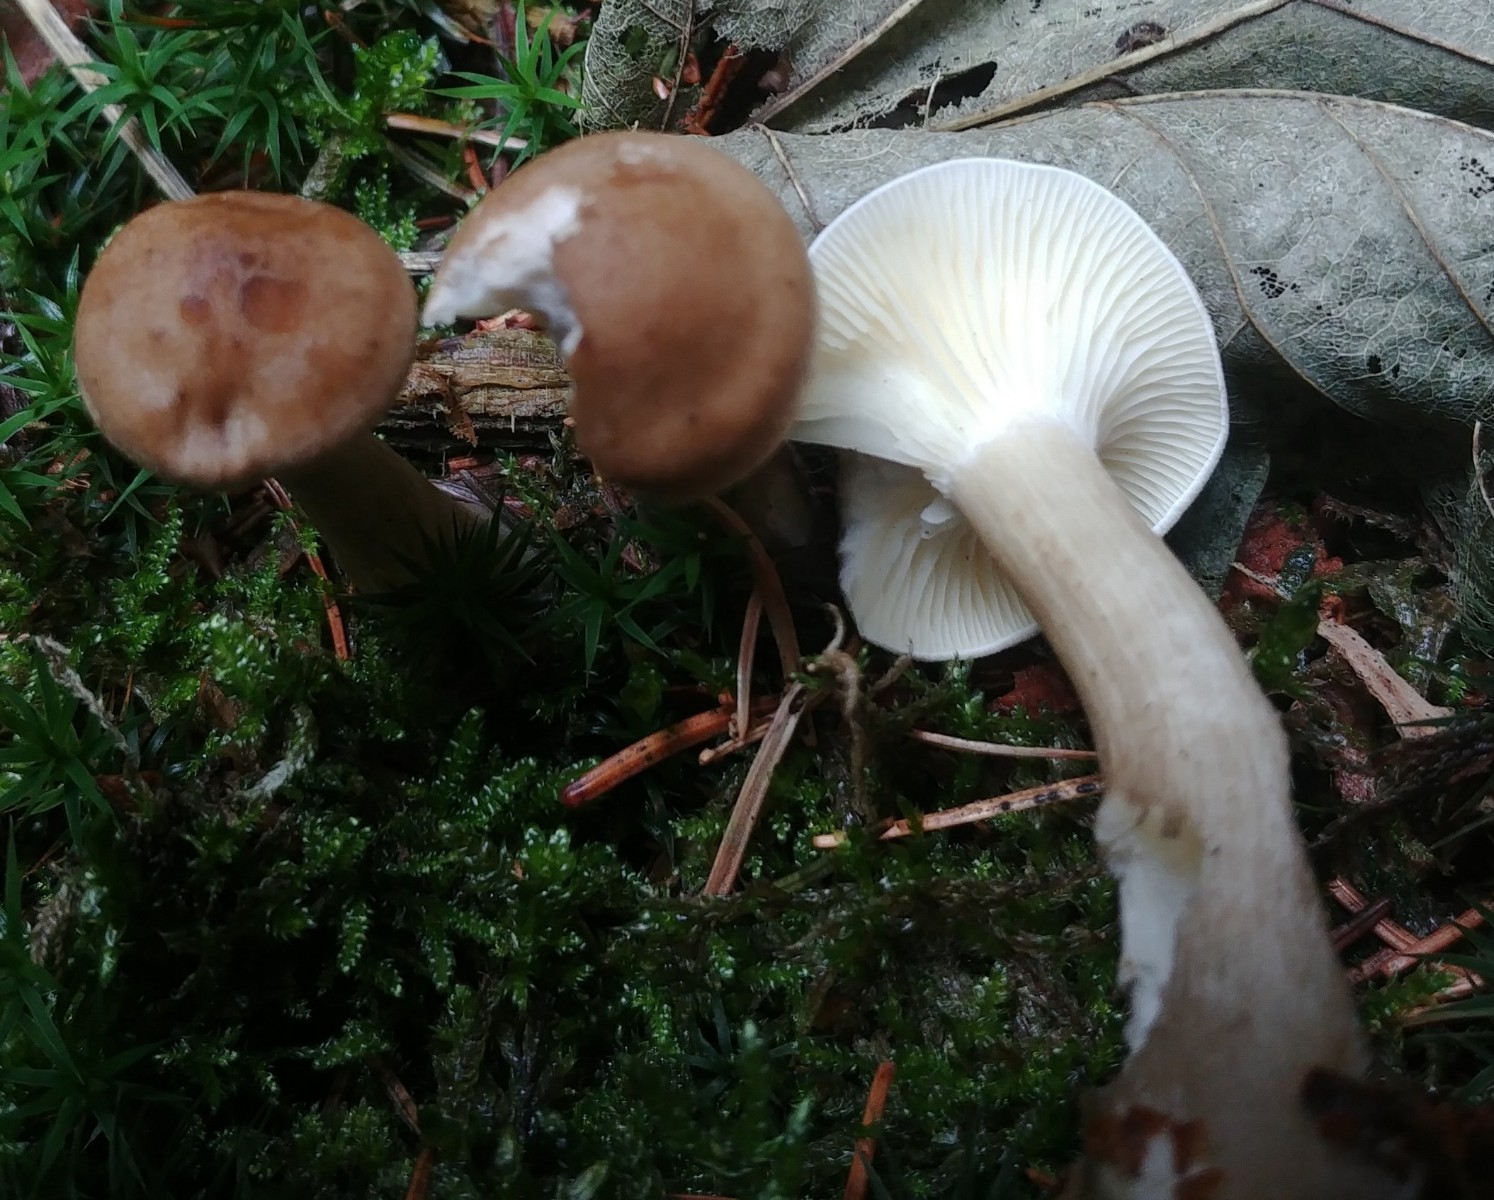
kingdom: Fungi
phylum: Basidiomycota
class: Agaricomycetes
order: Agaricales
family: Hygrophoraceae
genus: Ampulloclitocybe
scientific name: Ampulloclitocybe clavipes
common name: køllefod
